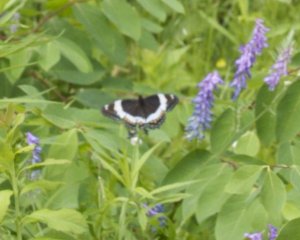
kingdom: Animalia
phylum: Arthropoda
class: Insecta
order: Lepidoptera
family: Nymphalidae
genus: Limenitis
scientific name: Limenitis arthemis
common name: Red-spotted Admiral
